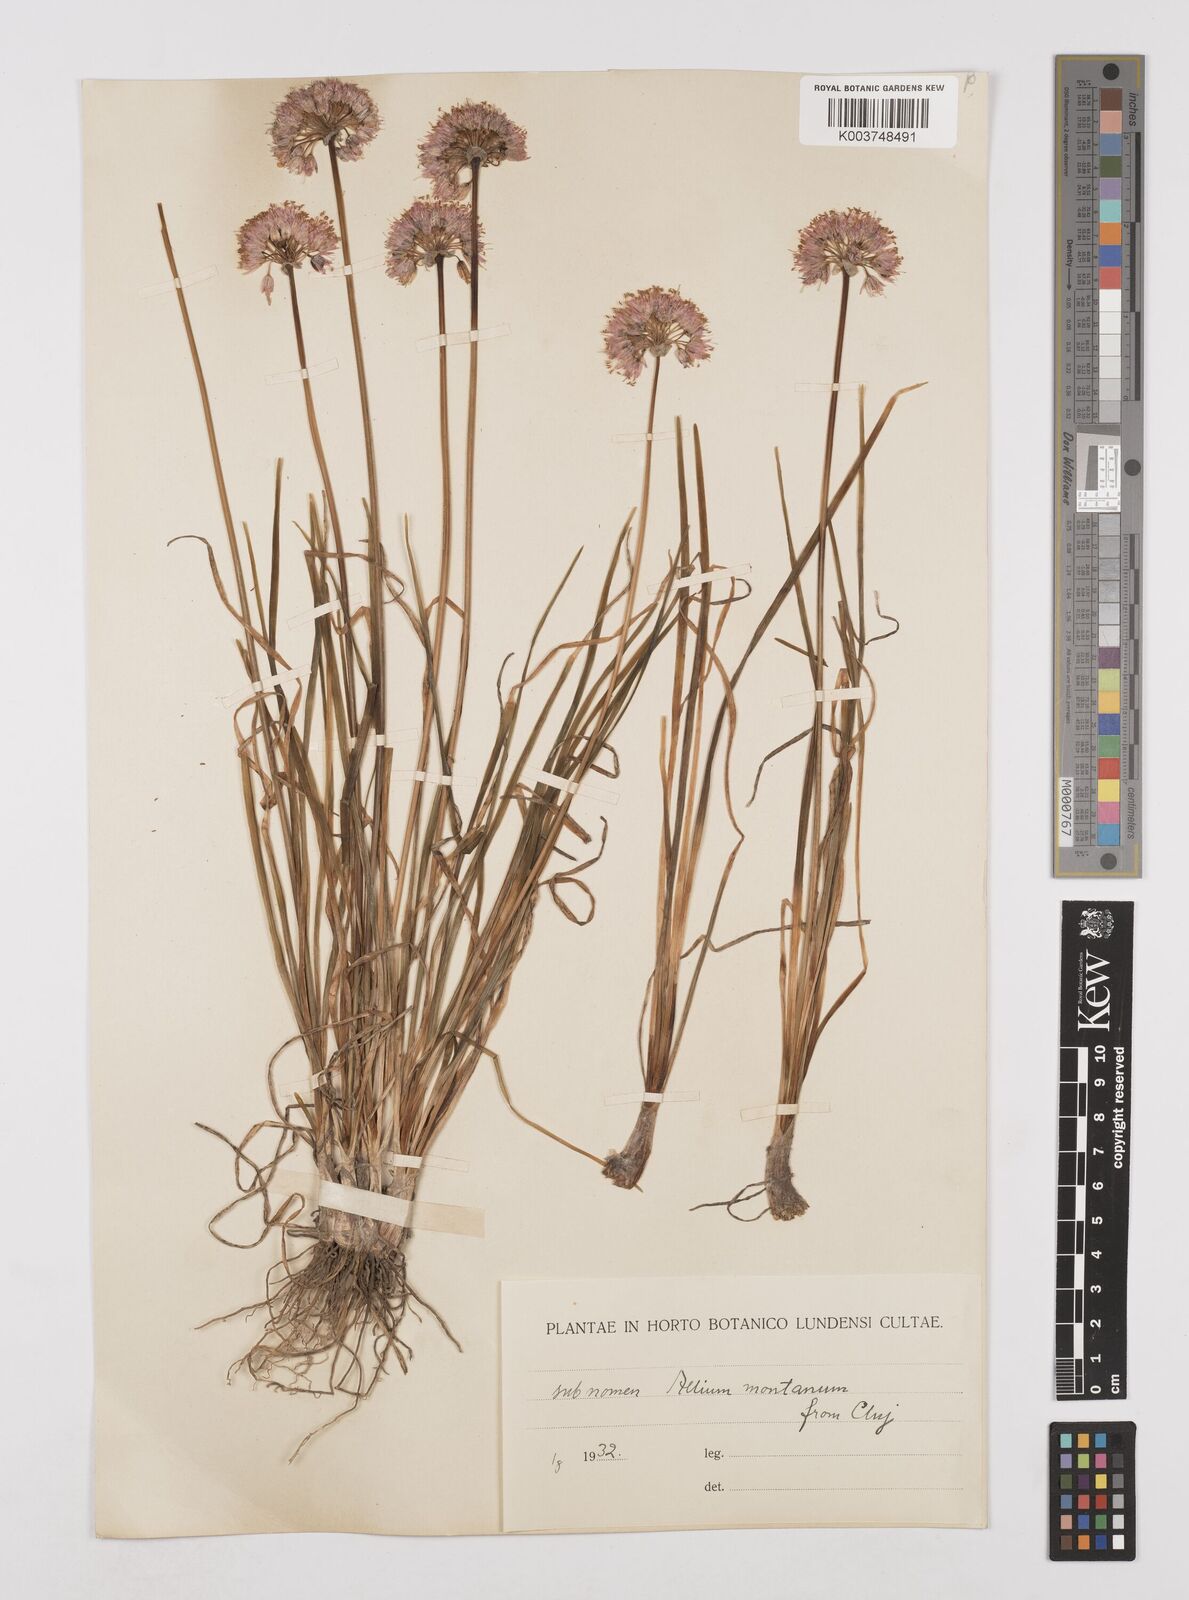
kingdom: Plantae
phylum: Tracheophyta
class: Liliopsida
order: Asparagales
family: Amaryllidaceae
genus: Allium
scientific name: Allium
